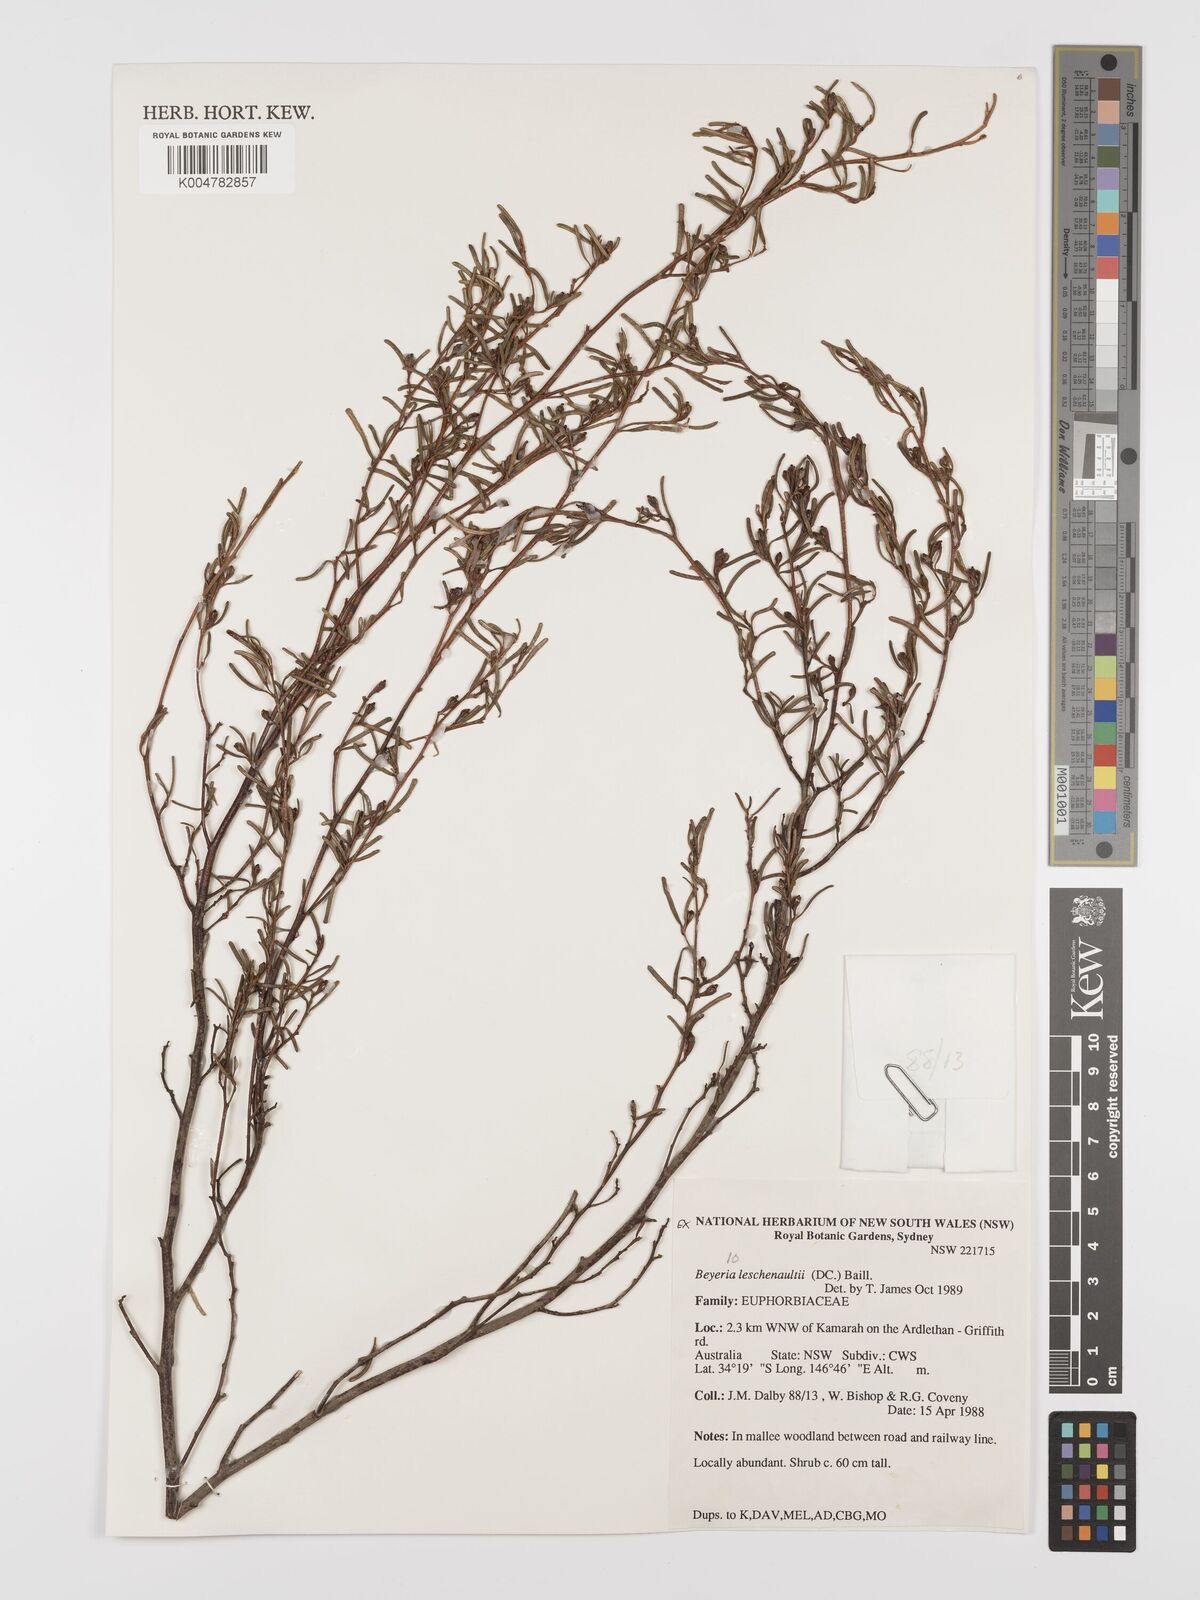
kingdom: Plantae
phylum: Tracheophyta
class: Magnoliopsida
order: Malpighiales
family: Euphorbiaceae
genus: Beyeria
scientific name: Beyeria lechenaultii
